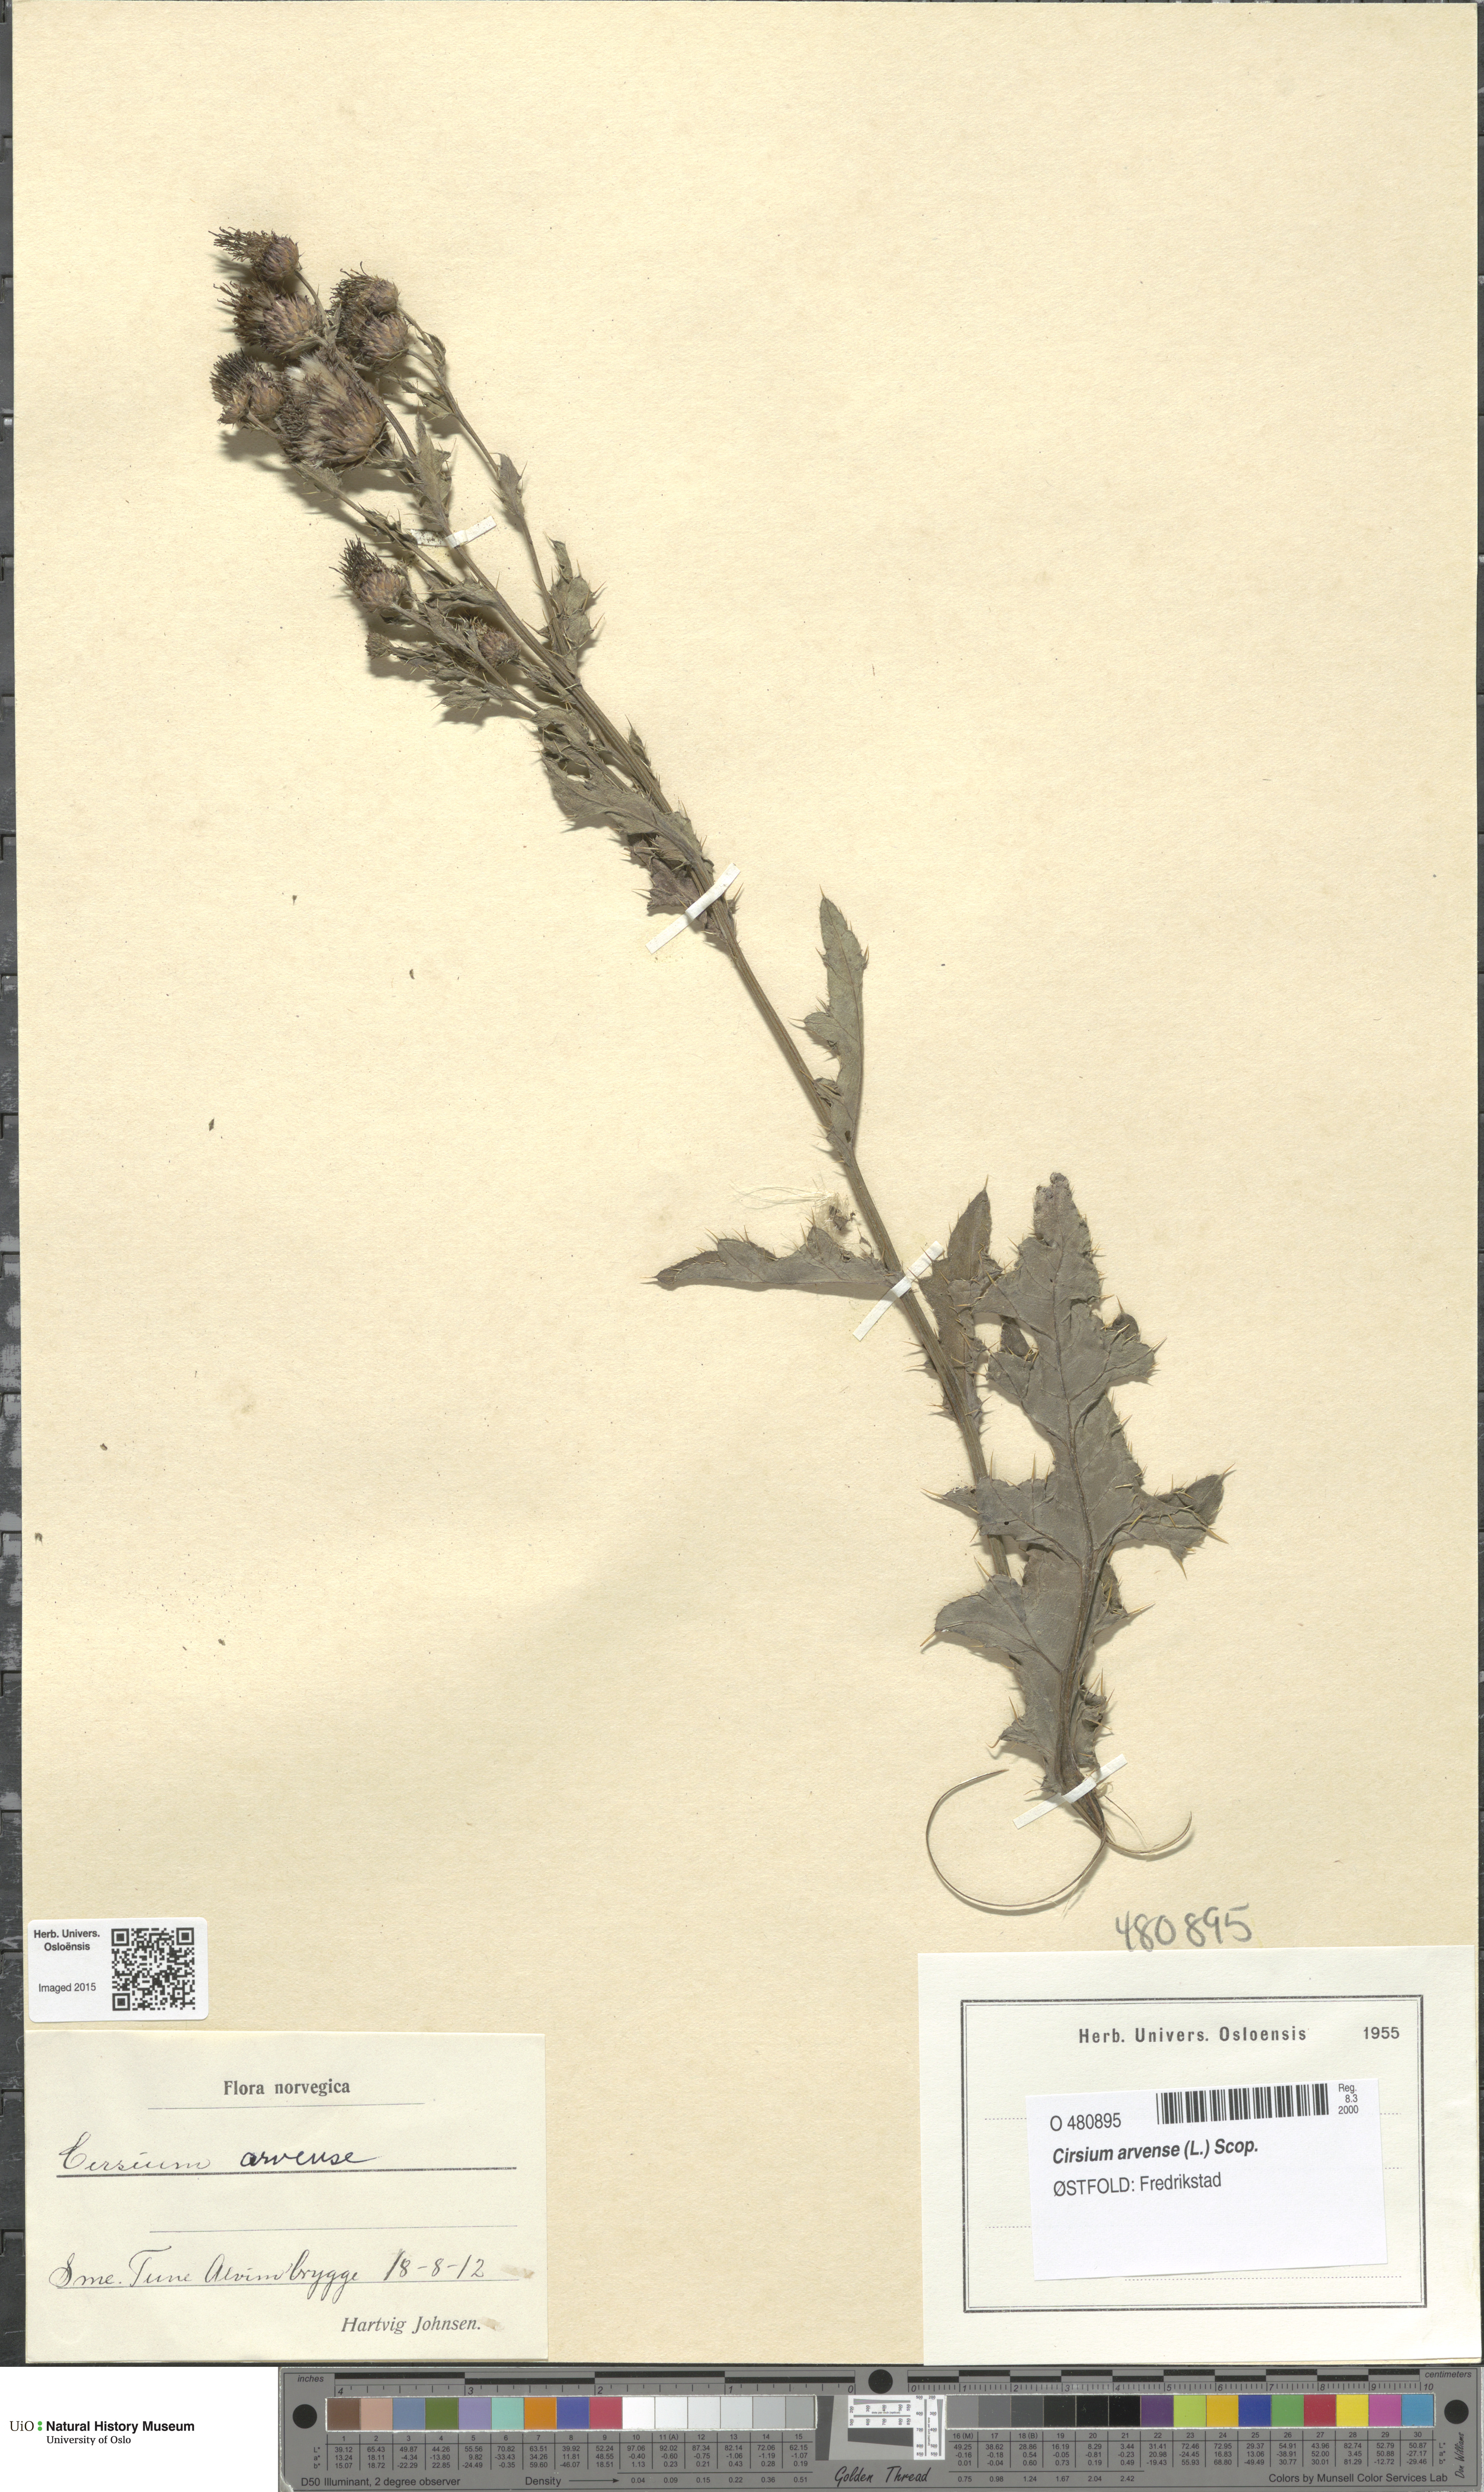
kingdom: Plantae
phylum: Tracheophyta
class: Magnoliopsida
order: Asterales
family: Asteraceae
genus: Cirsium
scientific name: Cirsium arvense
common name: Creeping thistle
